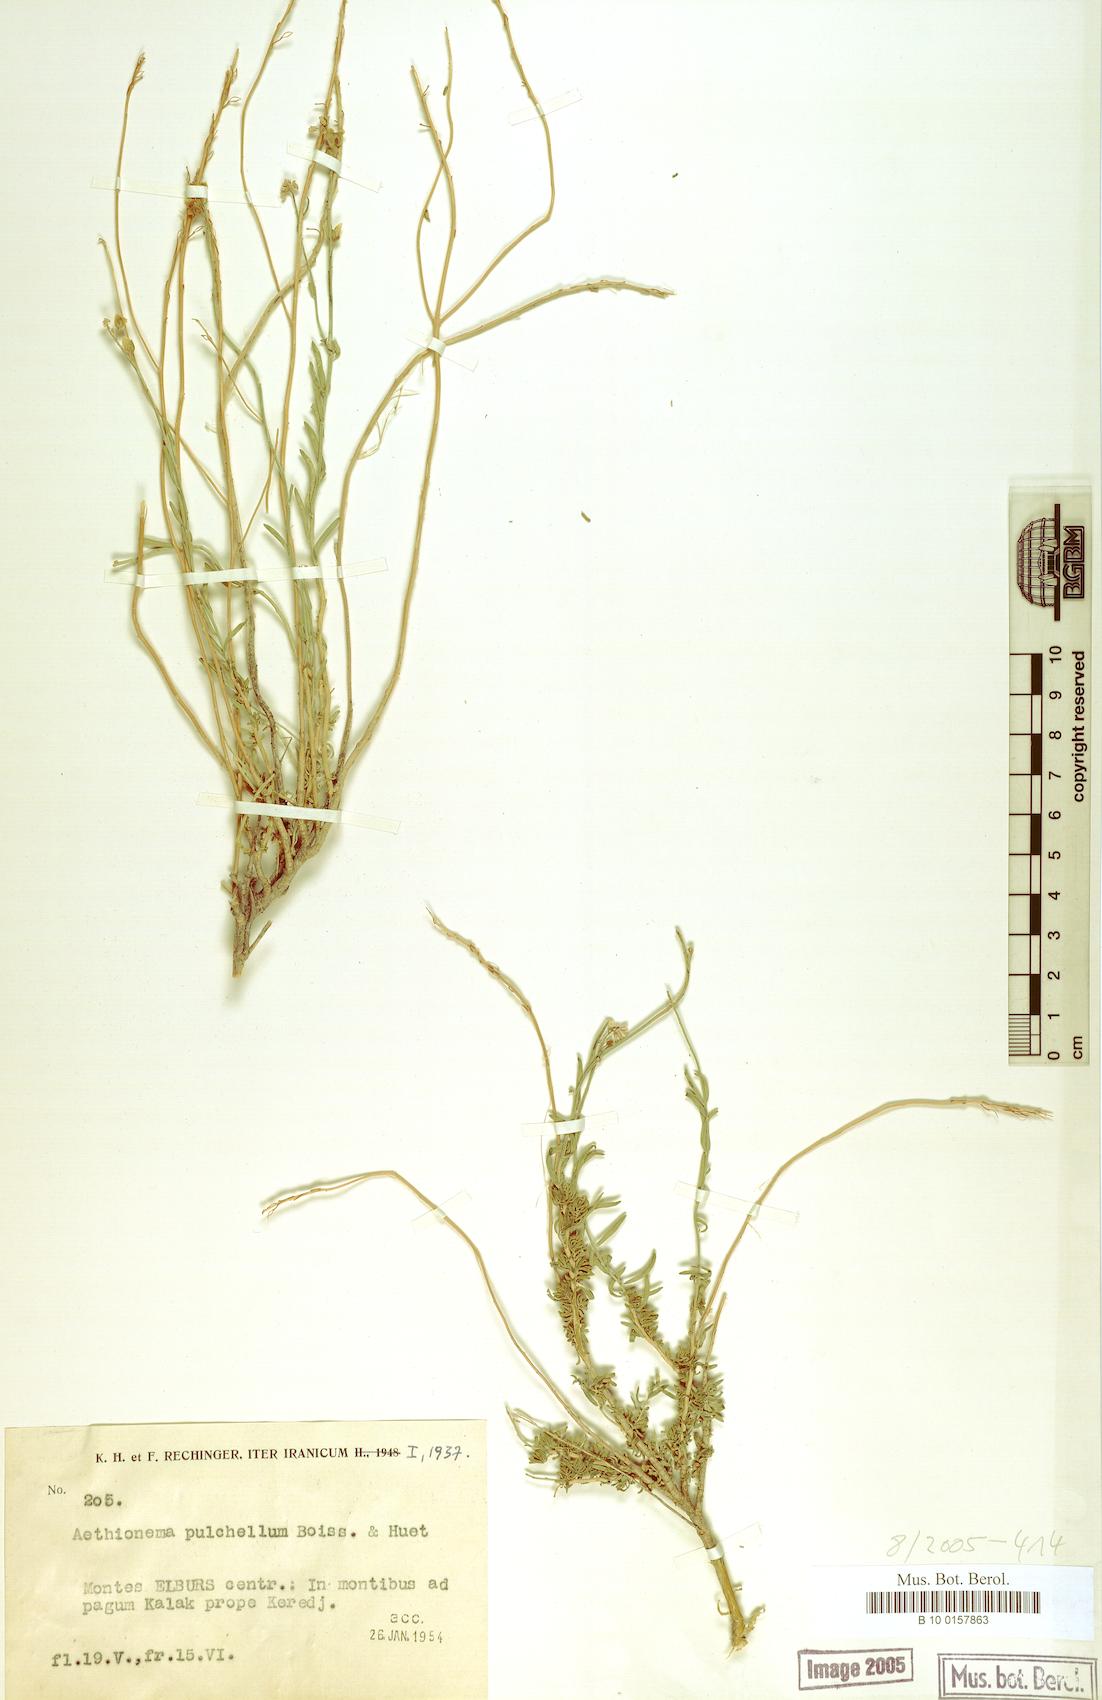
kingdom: Plantae
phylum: Tracheophyta
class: Magnoliopsida
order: Brassicales
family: Brassicaceae
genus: Aethionema
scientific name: Aethionema grandiflorum
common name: Persian stonecress
